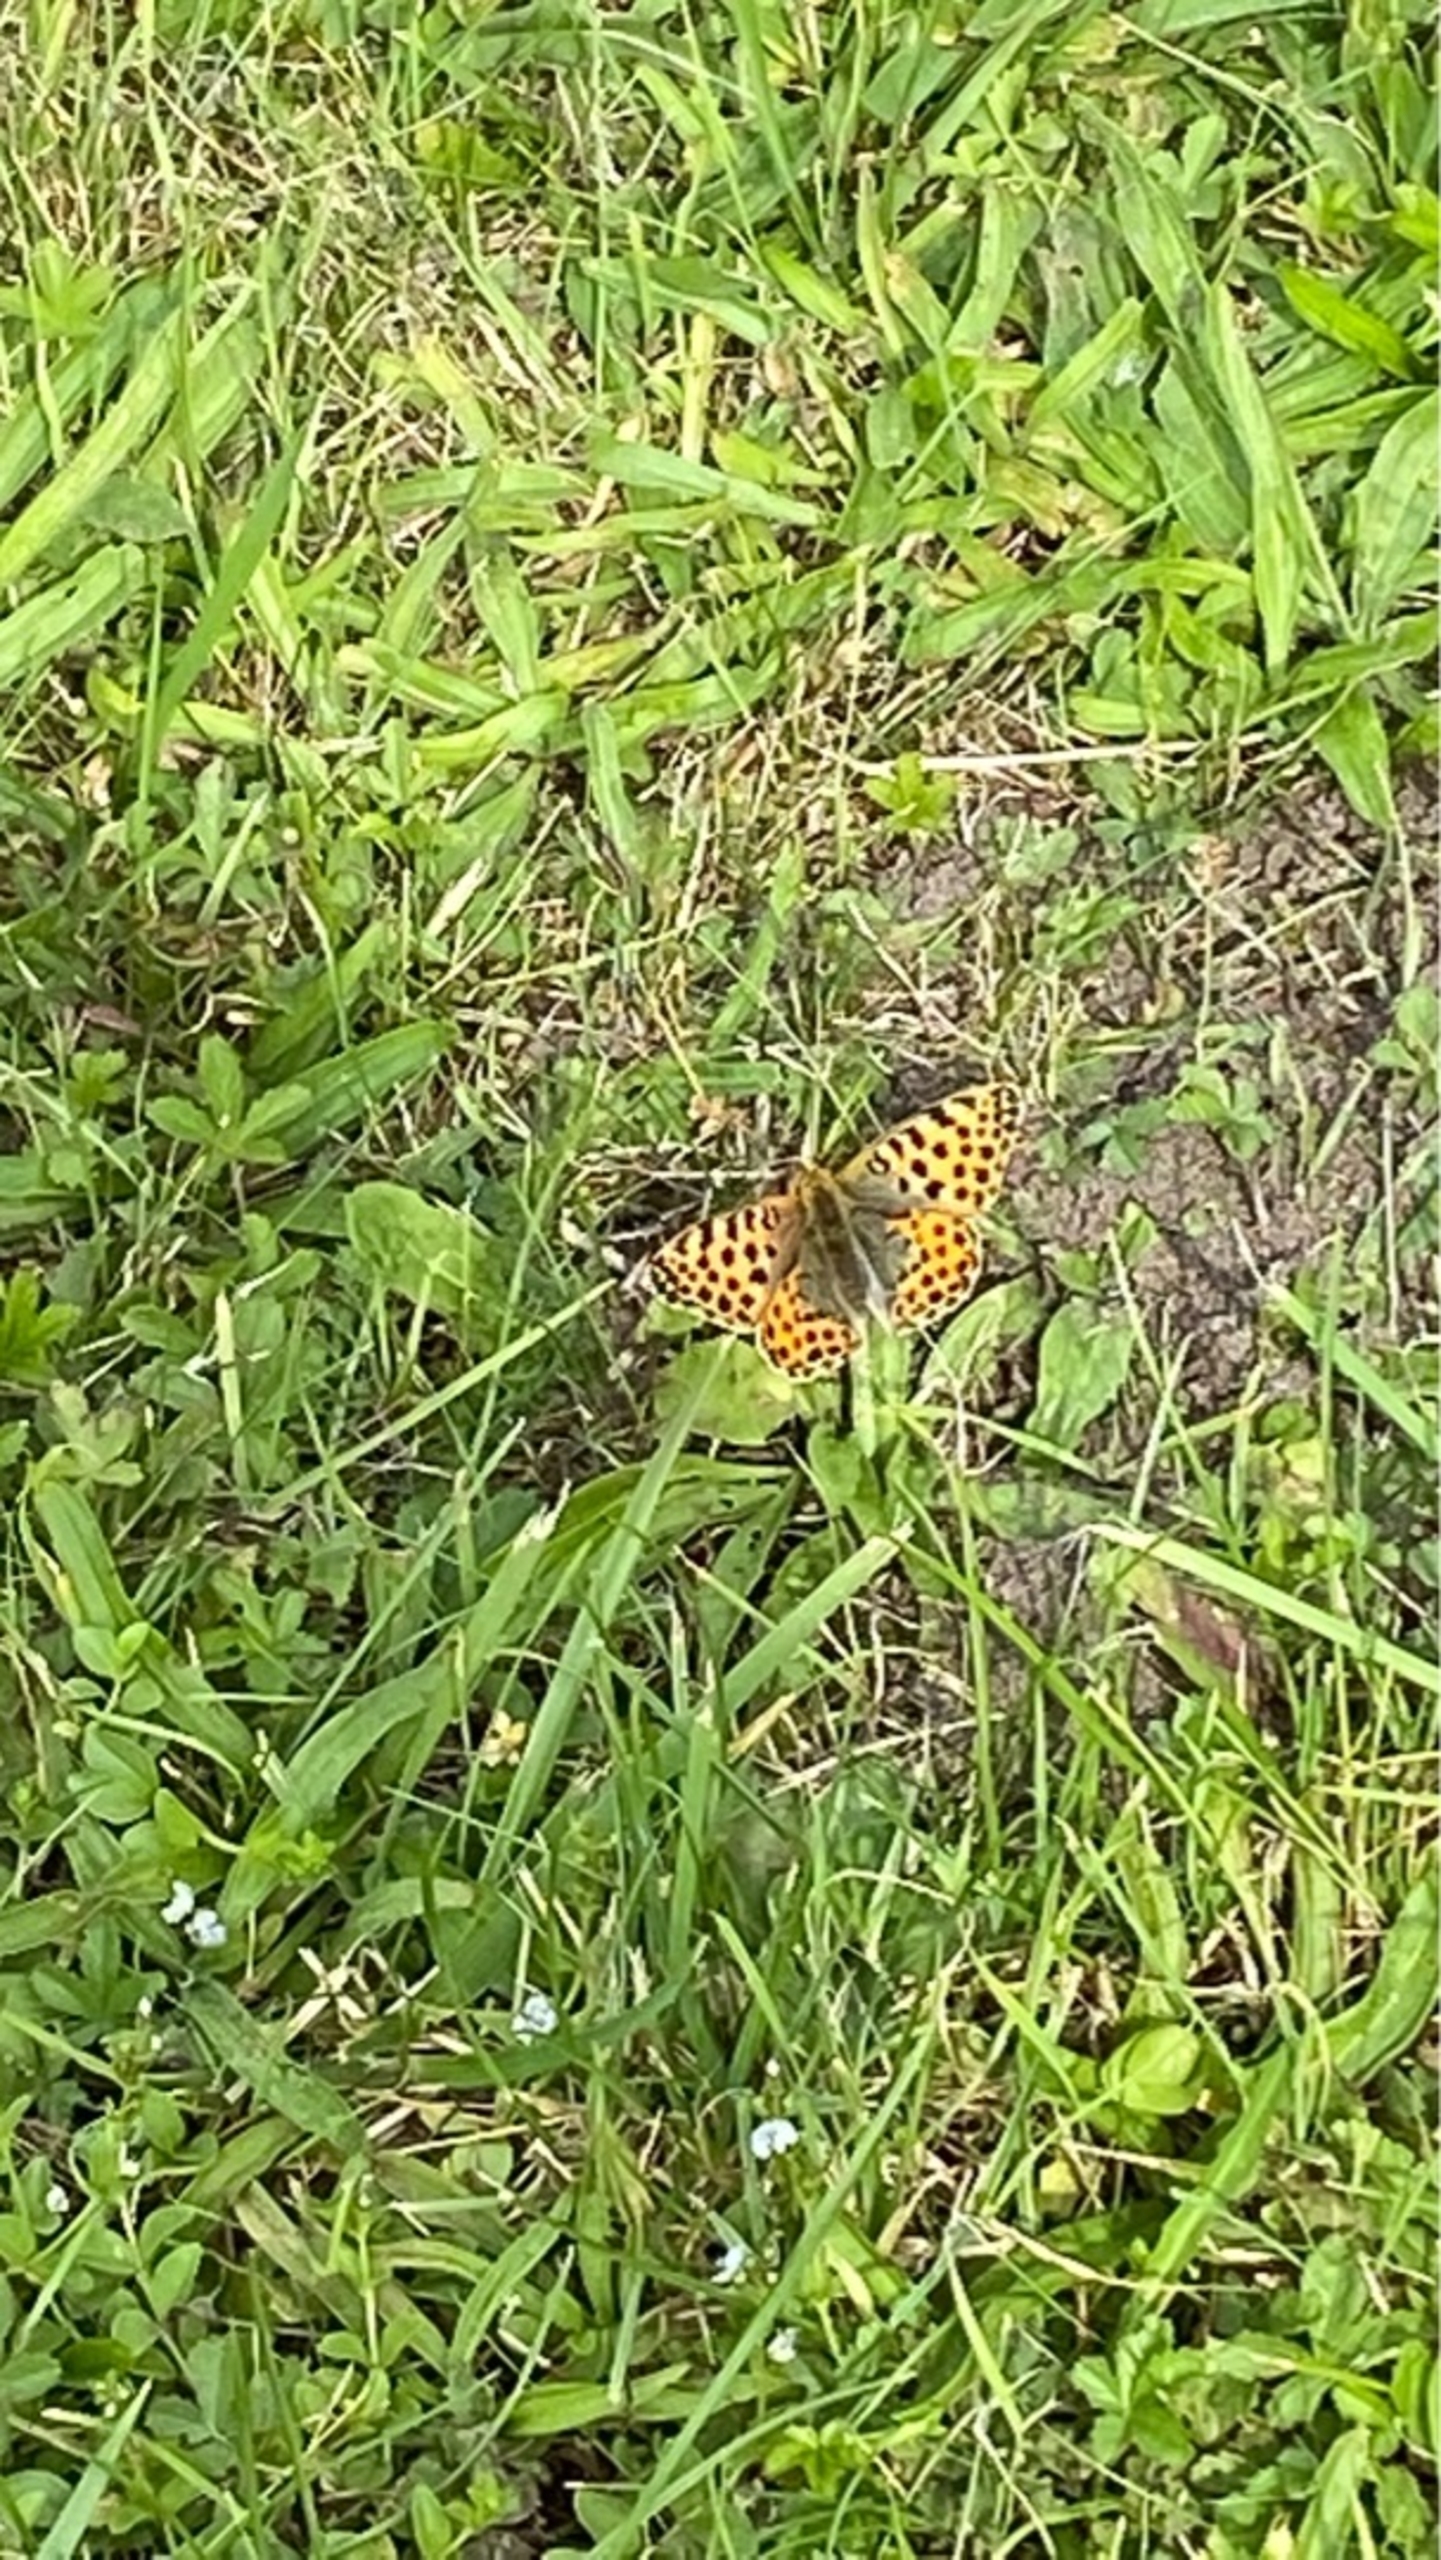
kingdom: Animalia
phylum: Arthropoda
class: Insecta
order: Lepidoptera
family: Nymphalidae
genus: Issoria
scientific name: Issoria lathonia
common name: Storplettet perlemorsommerfugl
